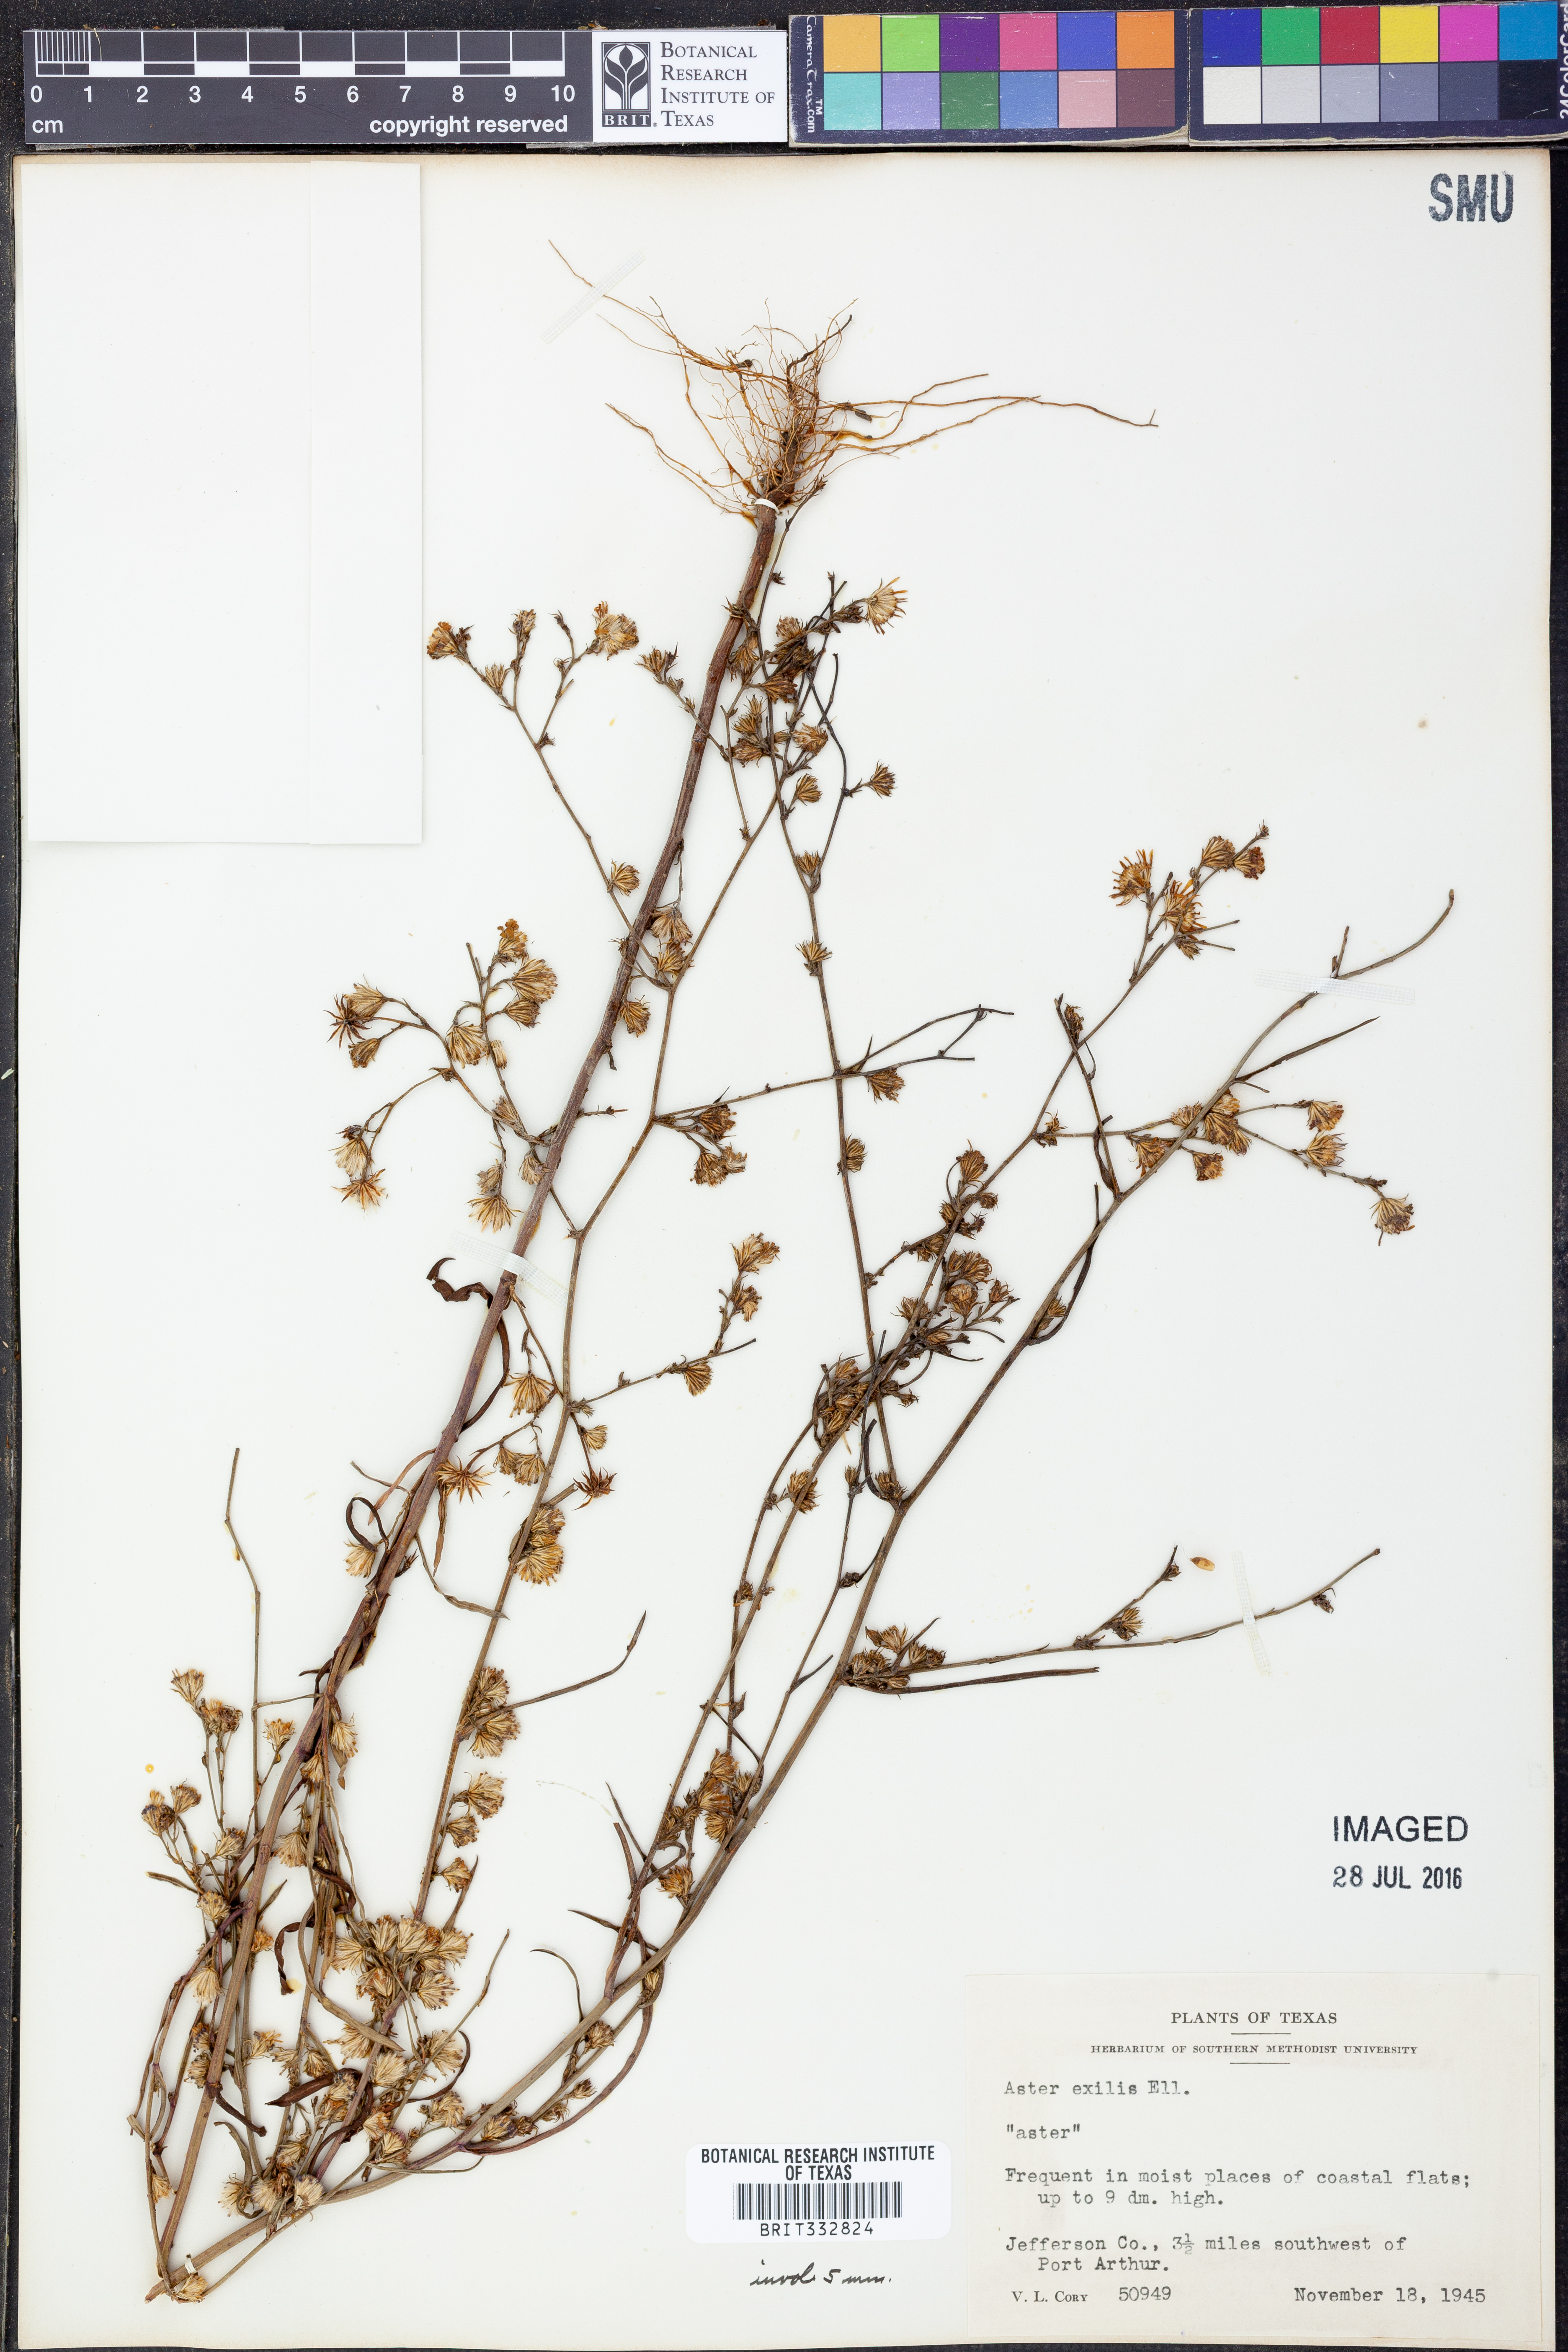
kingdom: Plantae
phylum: Tracheophyta
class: Magnoliopsida
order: Asterales
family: Asteraceae
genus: Symphyotrichum
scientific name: Symphyotrichum expansum
